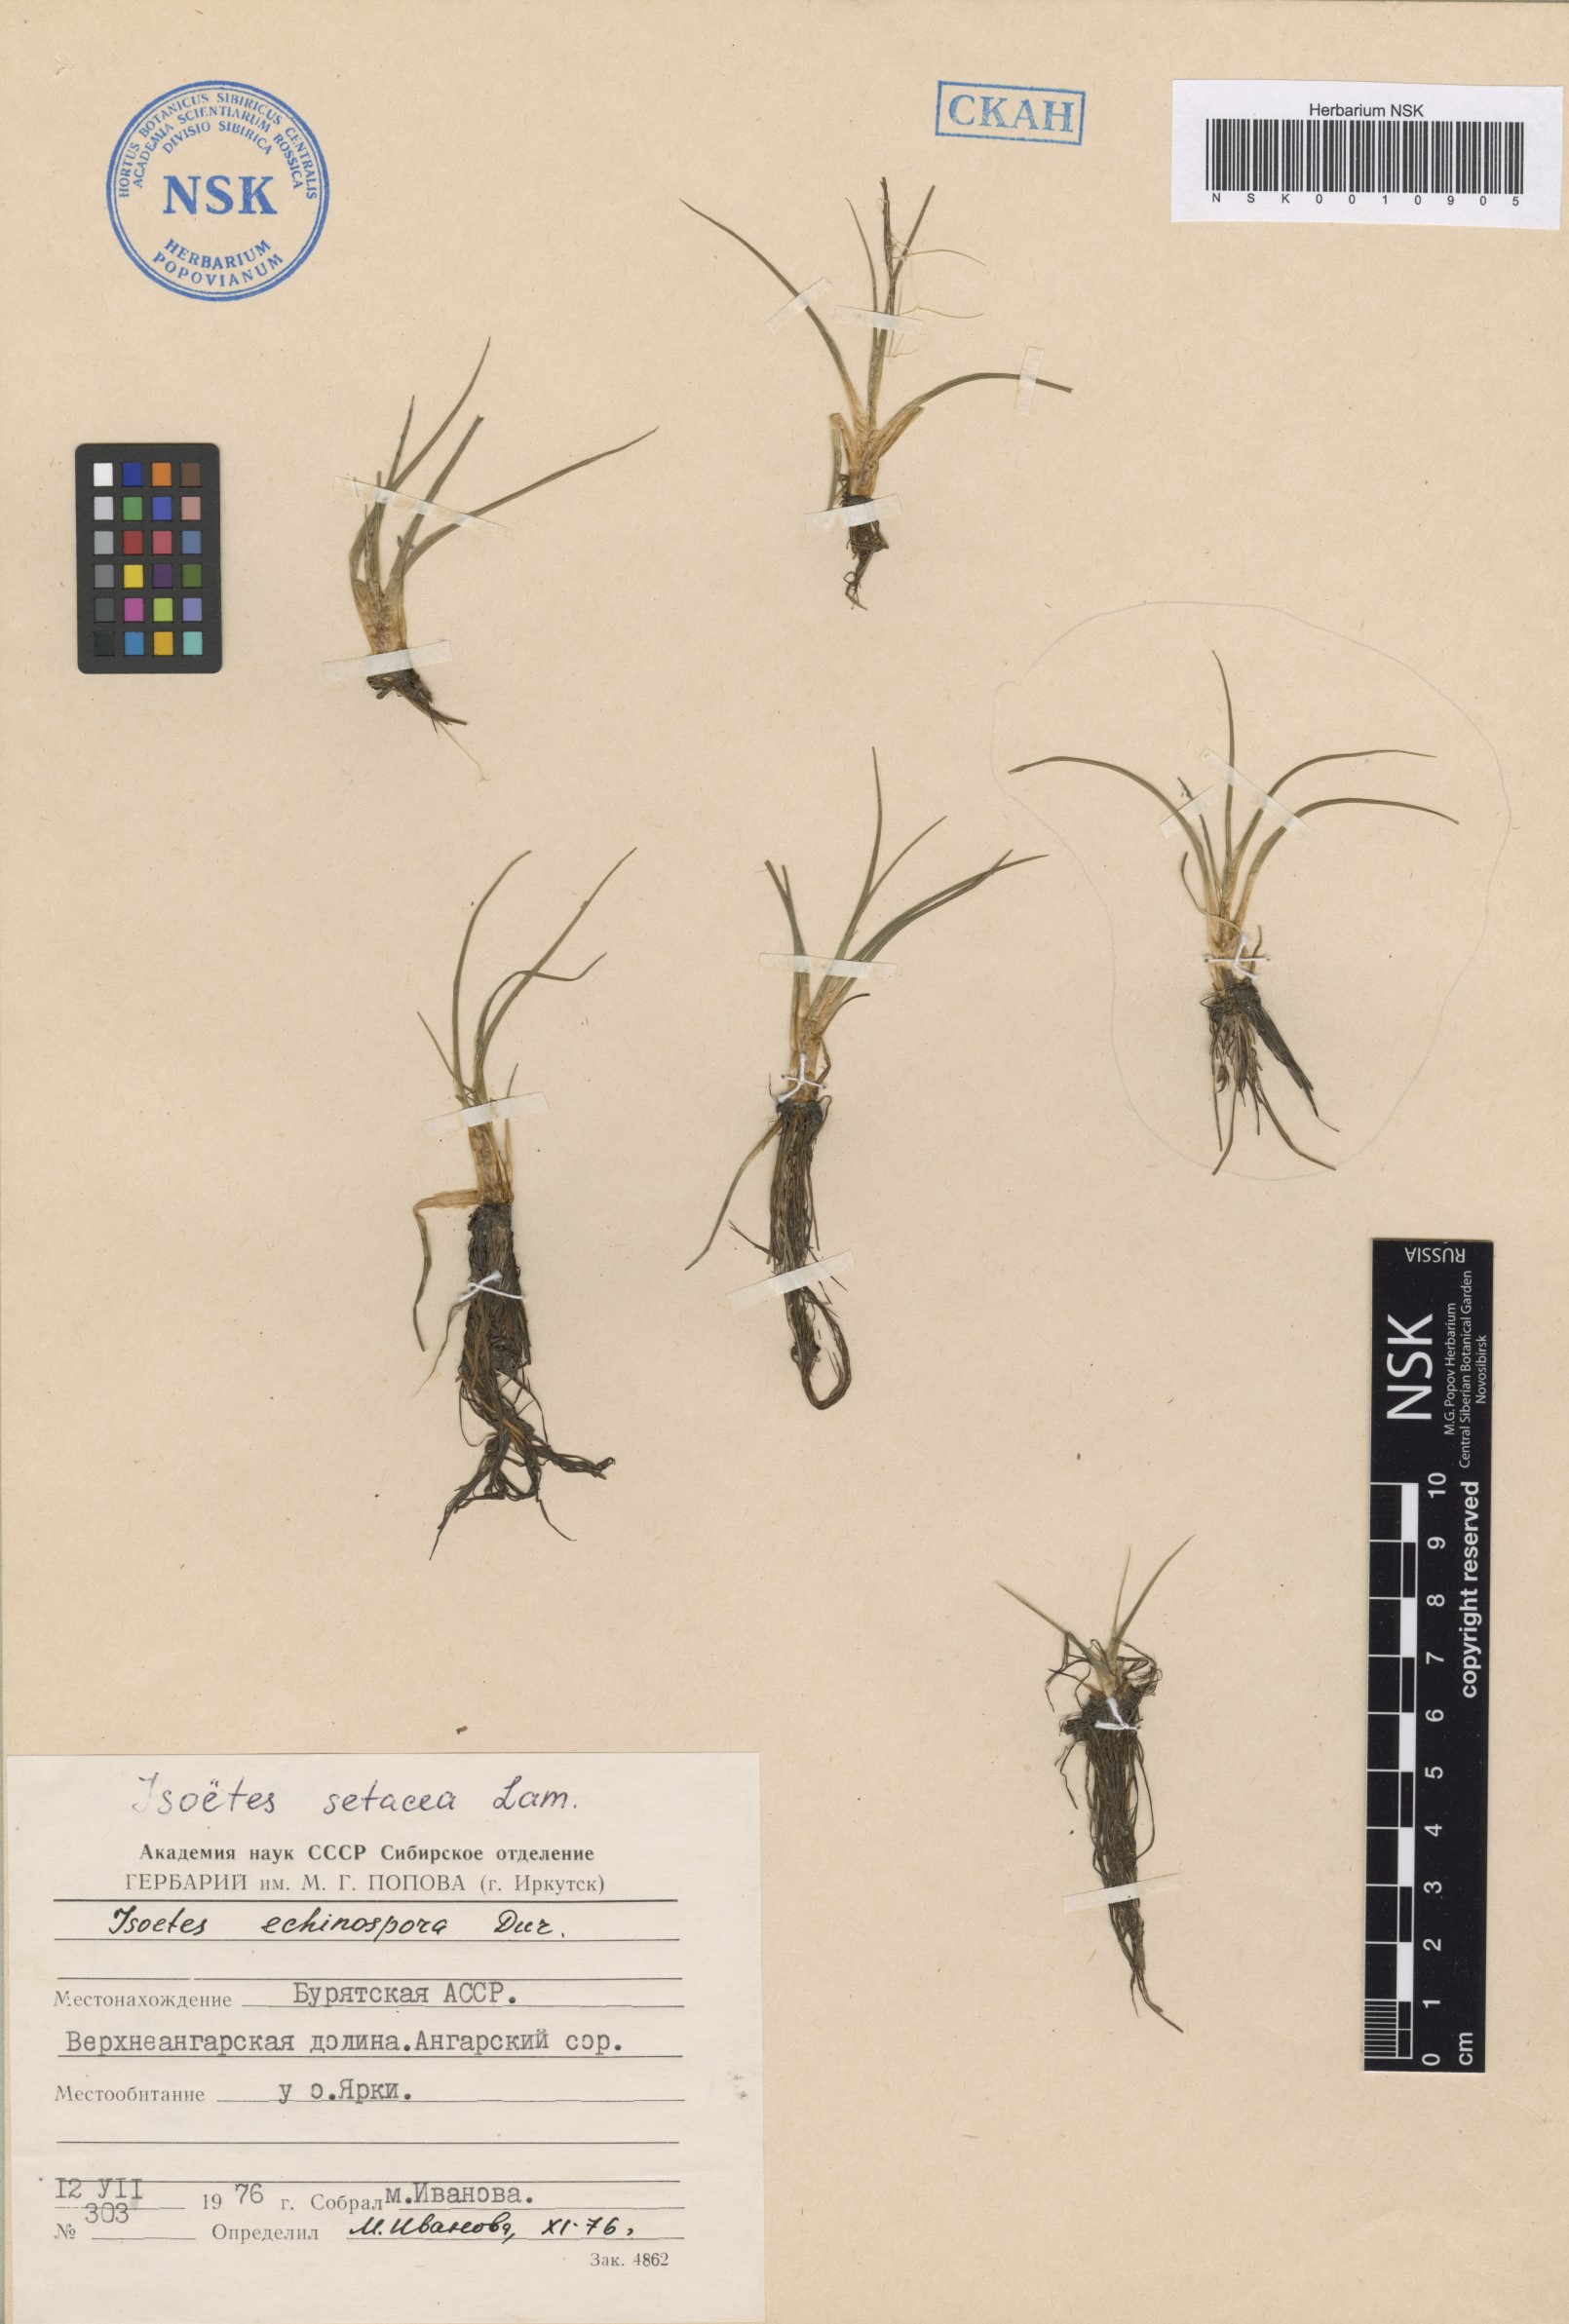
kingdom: Plantae
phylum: Tracheophyta
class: Lycopodiopsida
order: Isoetales
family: Isoetaceae
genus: Isoetes
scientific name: Isoetes lacustris
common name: Common quillwort
